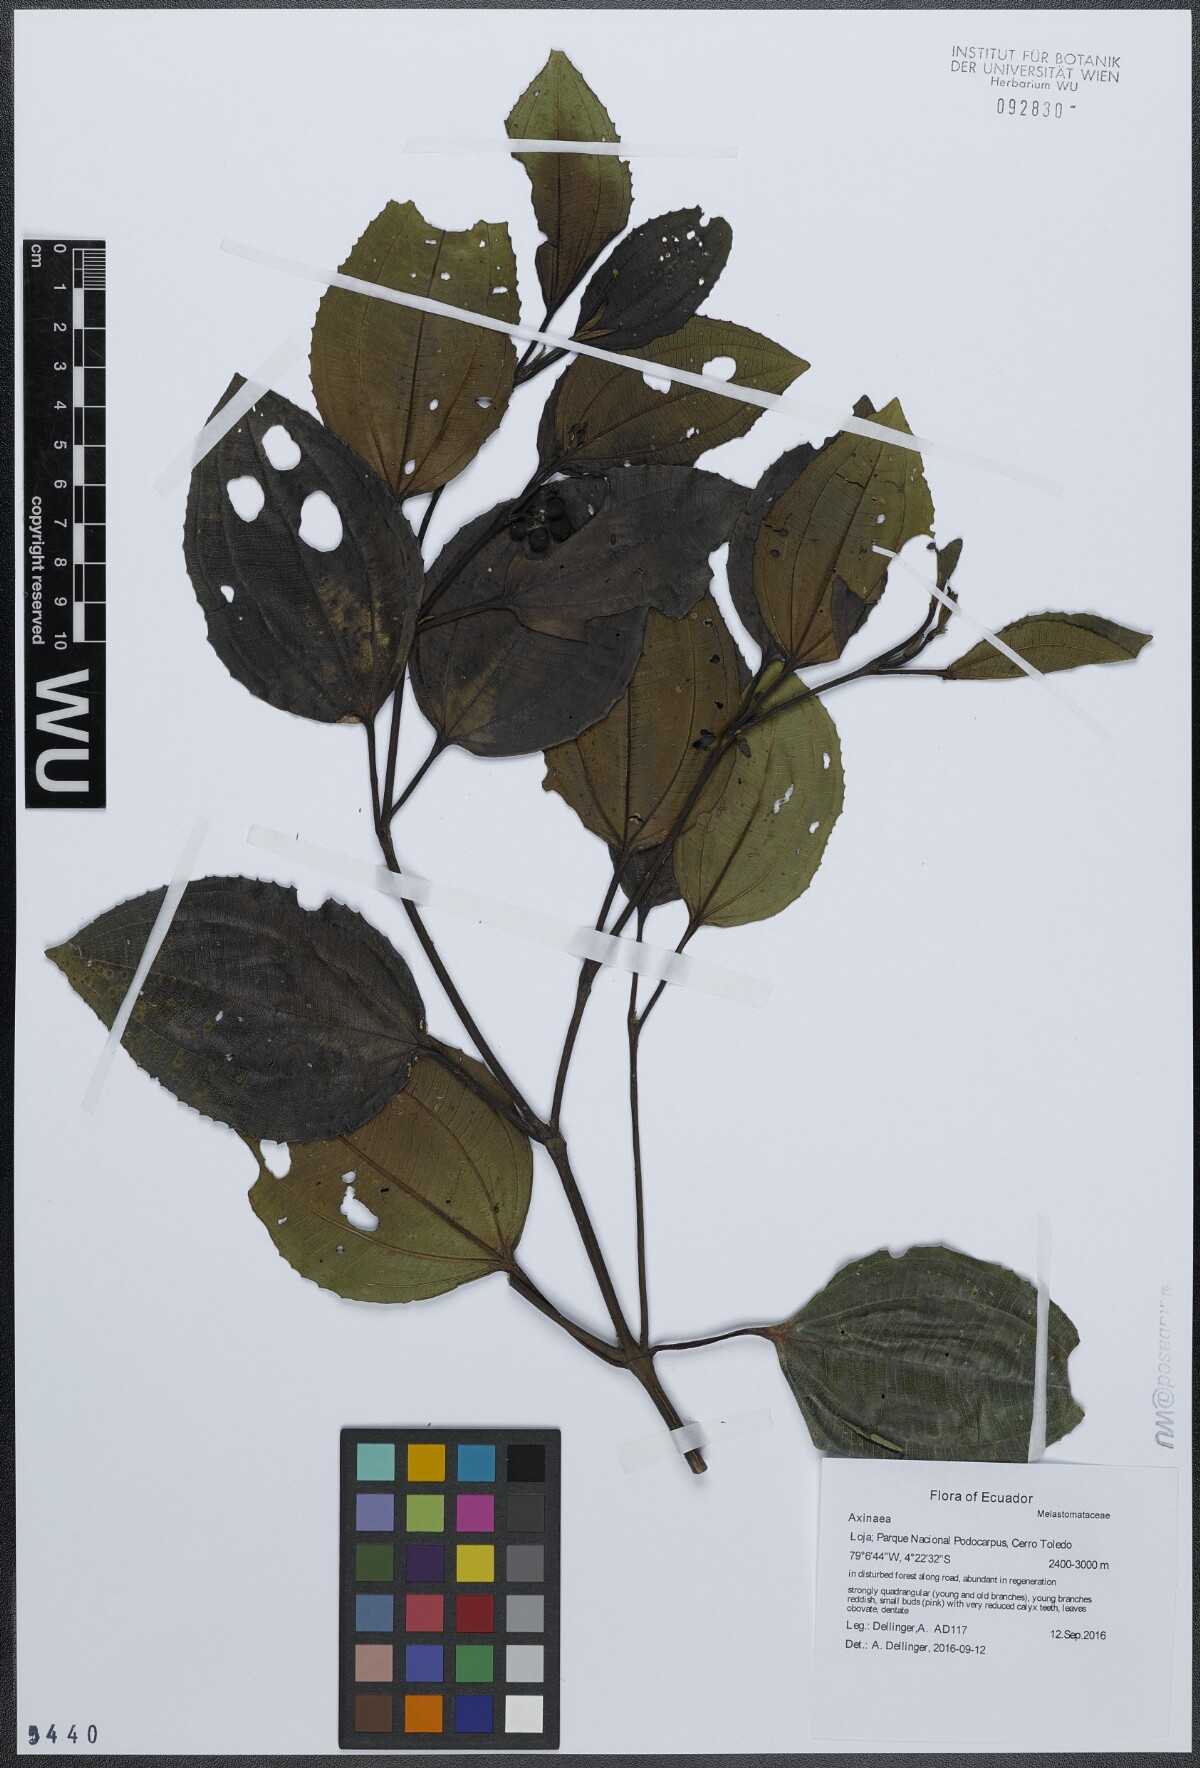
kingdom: Plantae
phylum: Tracheophyta
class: Magnoliopsida
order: Myrtales
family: Melastomataceae
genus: Axinaea
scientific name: Axinaea macrophylla
